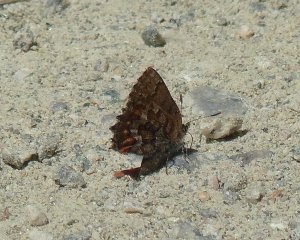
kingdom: Animalia
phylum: Arthropoda
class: Insecta
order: Lepidoptera
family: Lycaenidae
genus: Incisalia
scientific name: Incisalia niphon
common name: Eastern Pine Elfin
